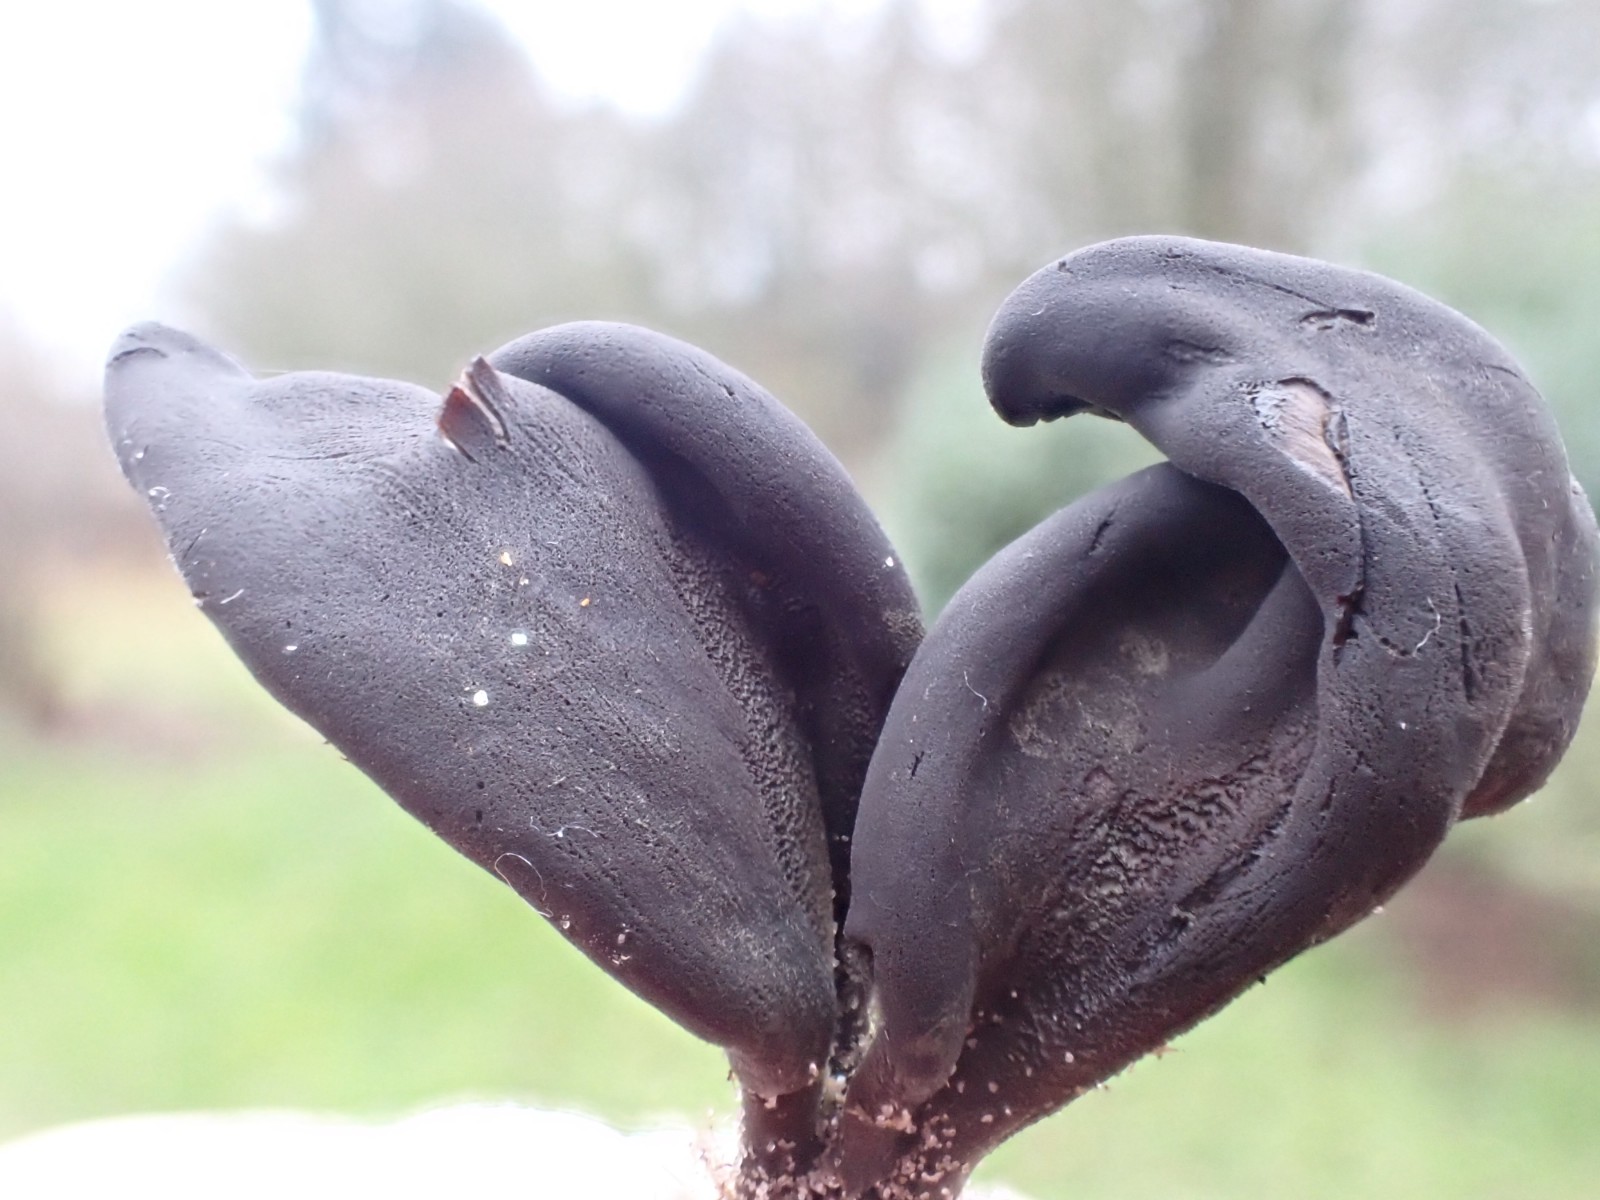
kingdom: Fungi
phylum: Ascomycota
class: Geoglossomycetes
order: Geoglossales
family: Geoglossaceae
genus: Geoglossum
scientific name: Geoglossum cookeianum
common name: bred jordtunge
